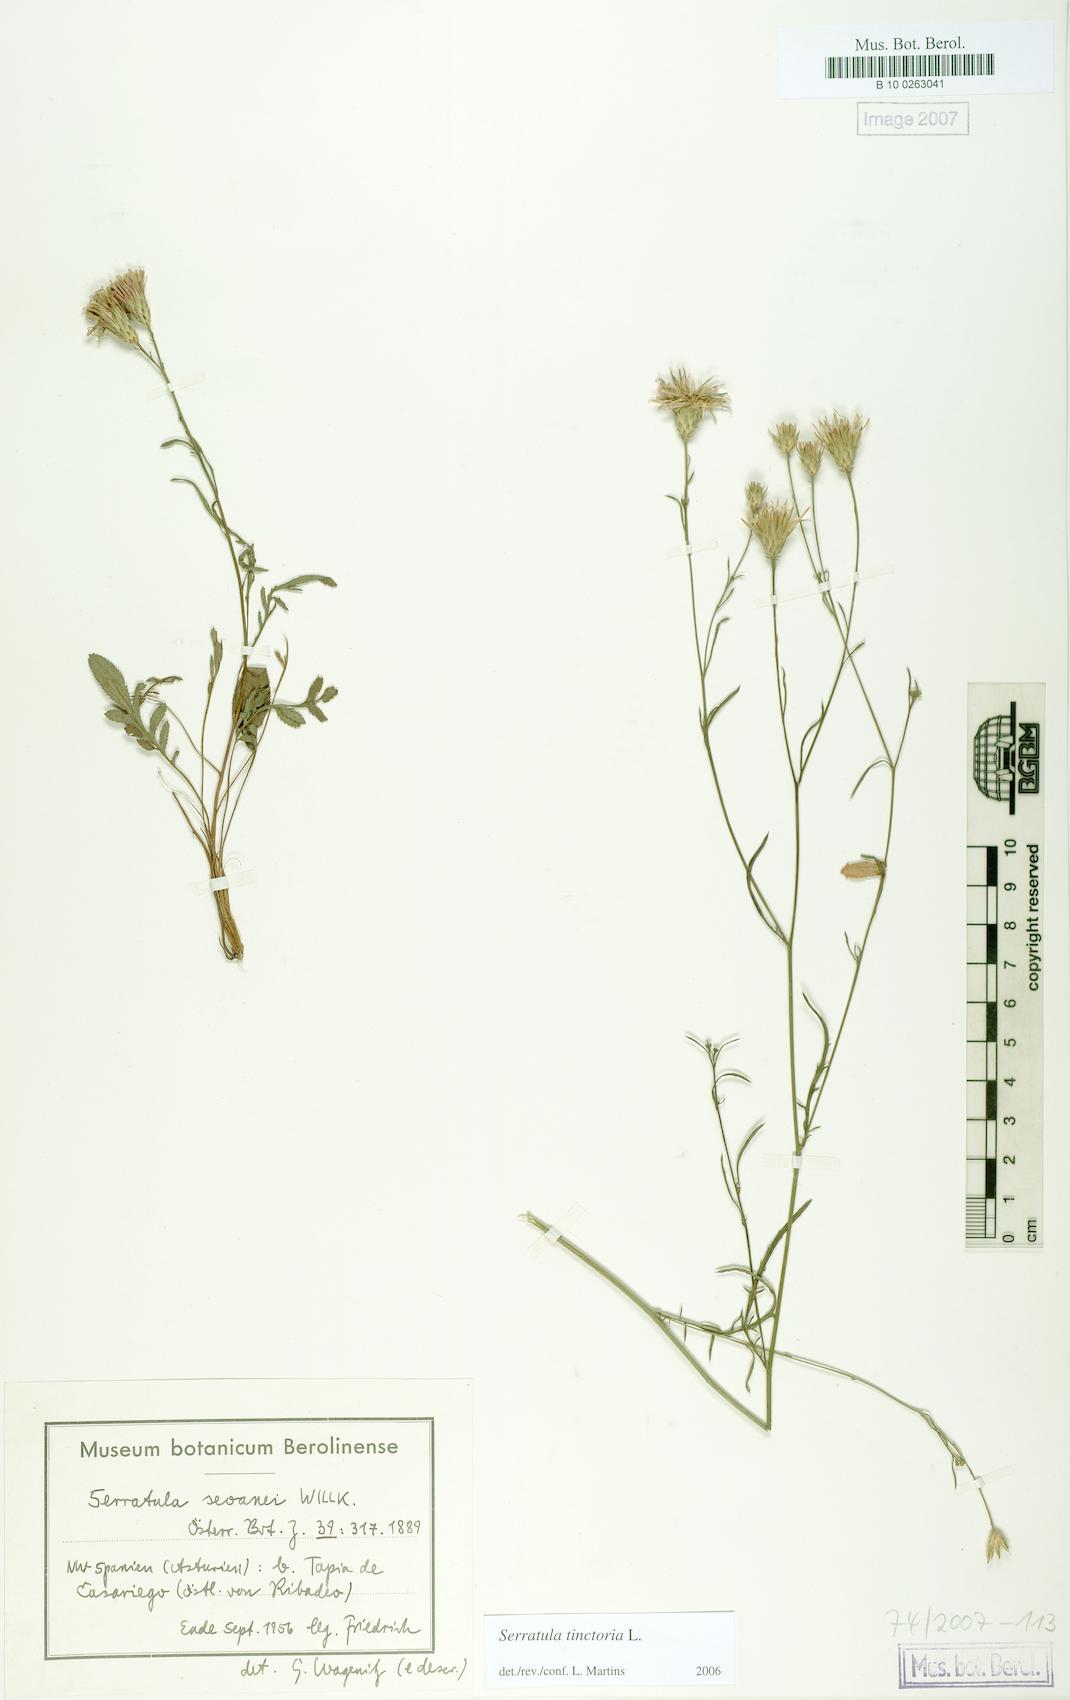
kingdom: Plantae
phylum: Tracheophyta
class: Magnoliopsida
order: Asterales
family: Asteraceae
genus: Serratula
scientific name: Serratula tinctoria
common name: Saw-wort
